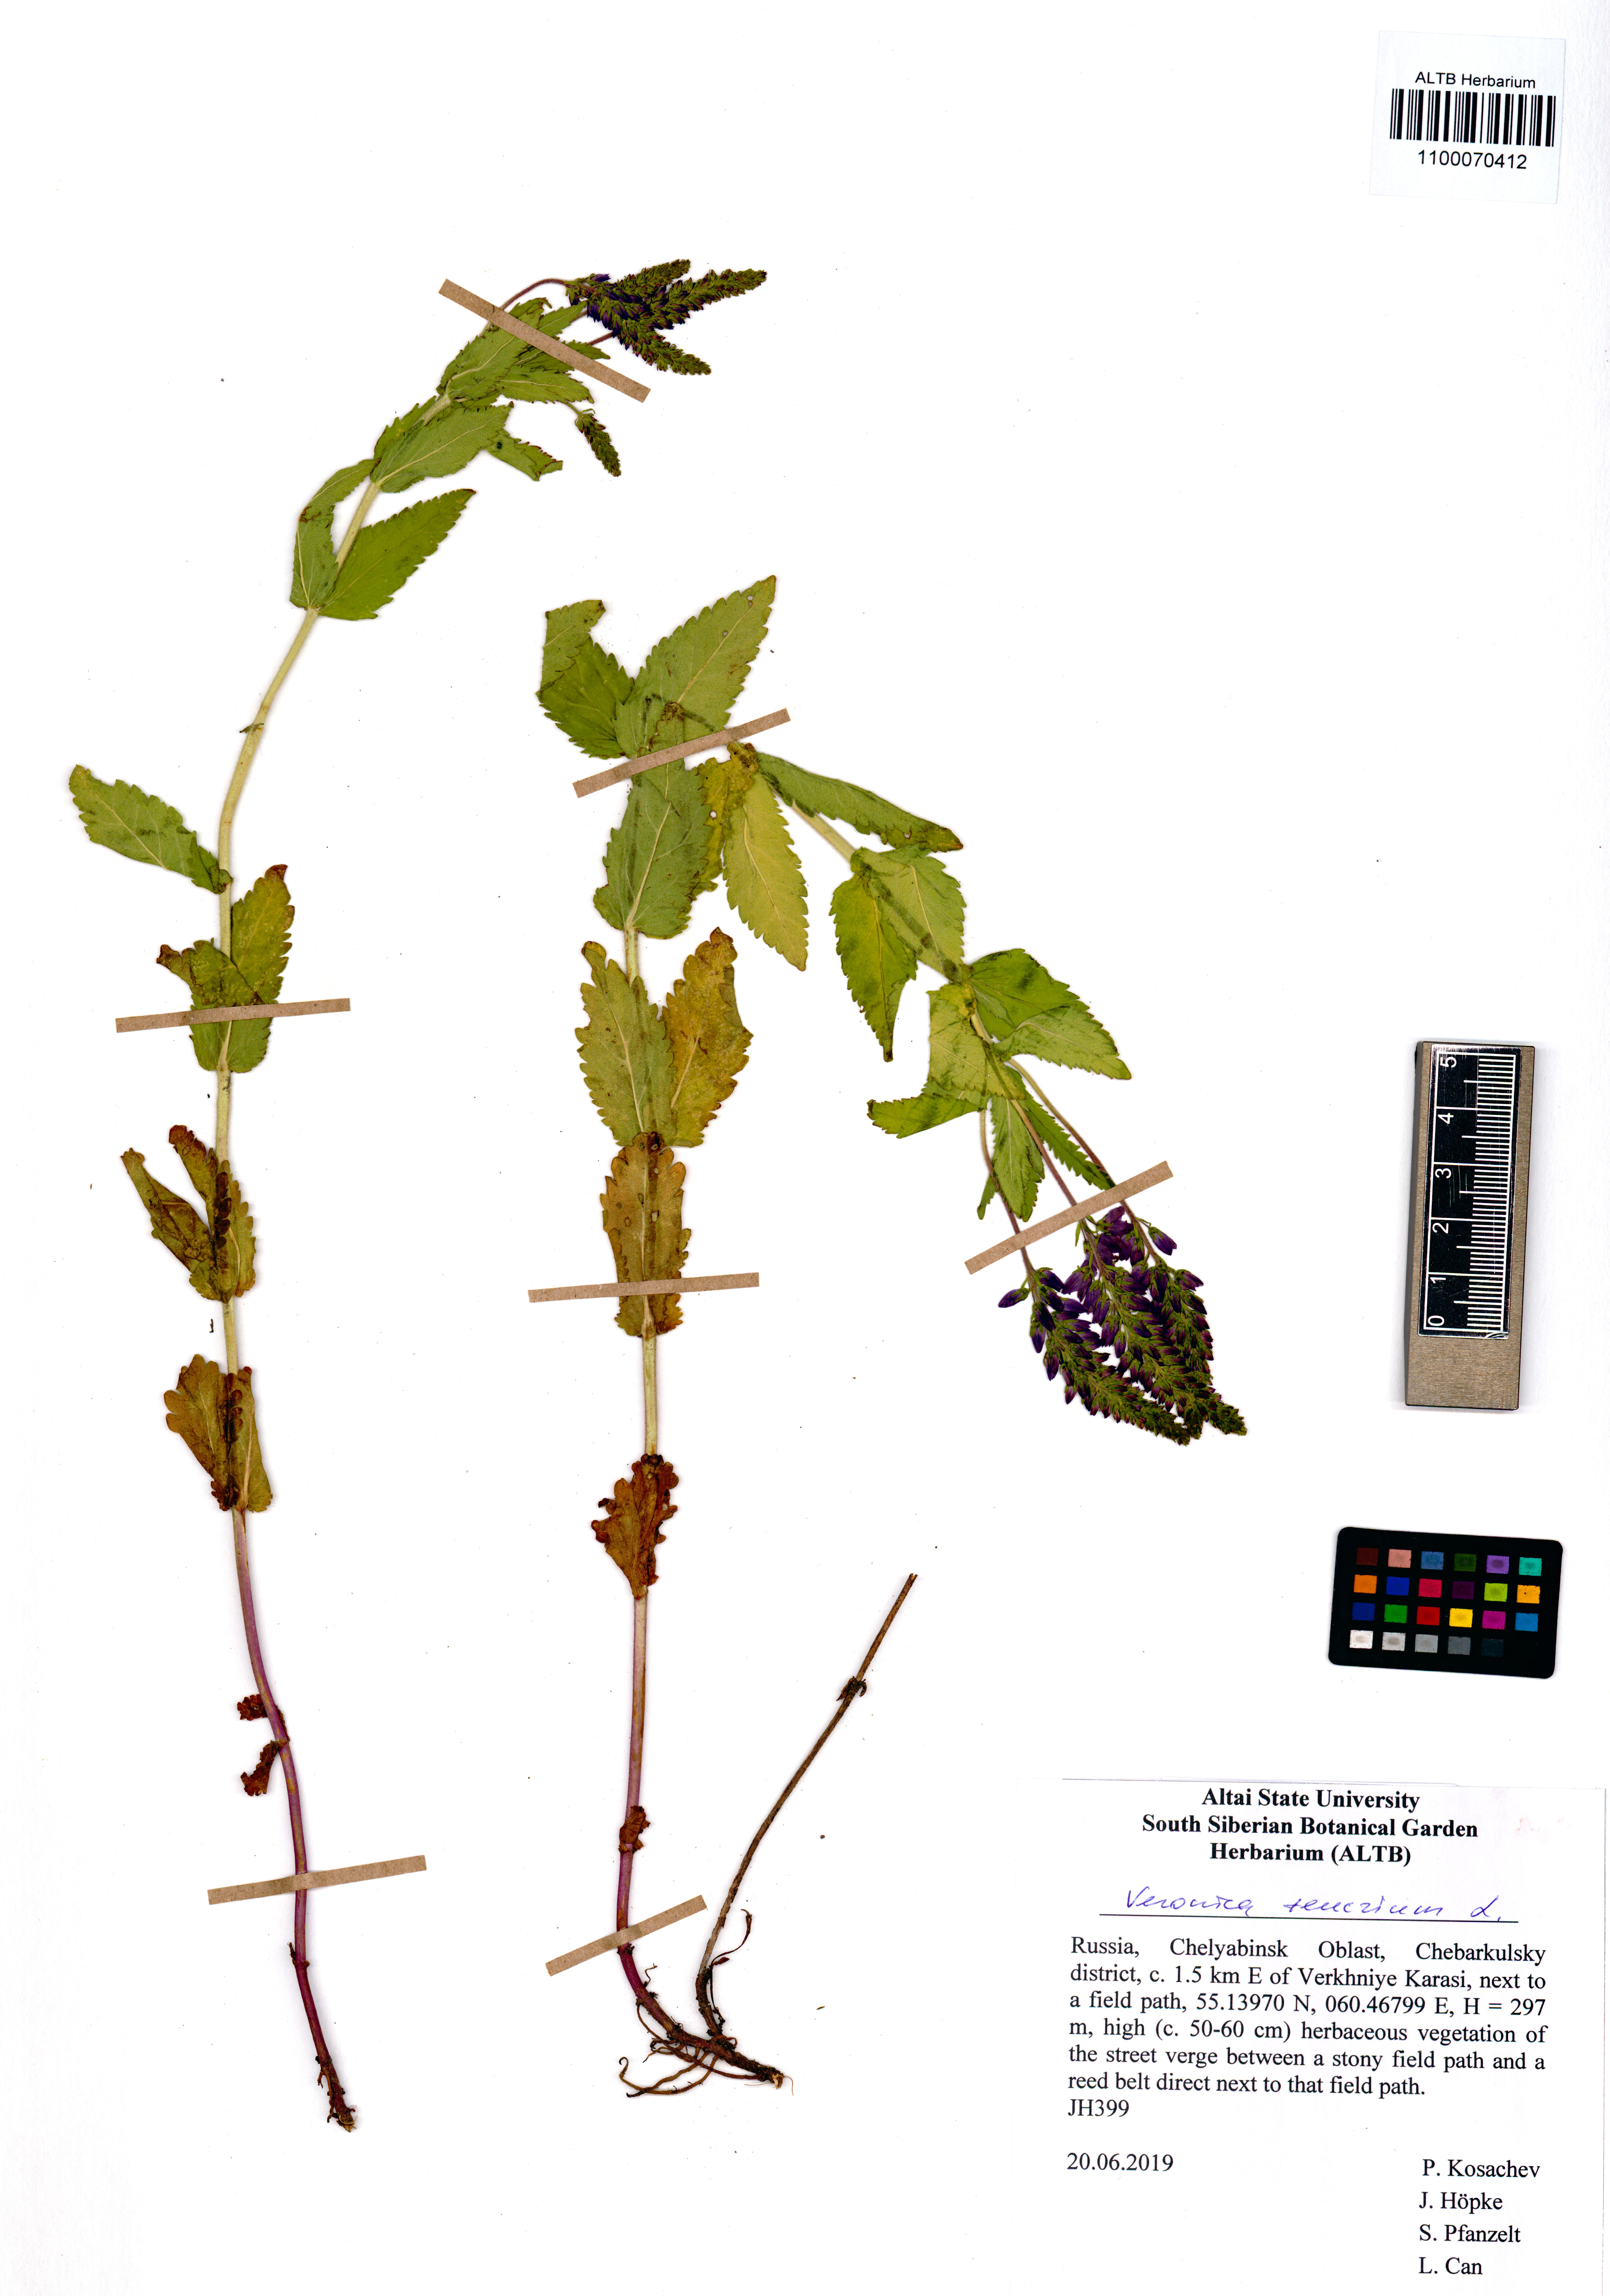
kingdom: Plantae
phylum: Tracheophyta
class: Magnoliopsida
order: Lamiales
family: Plantaginaceae
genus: Veronica
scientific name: Veronica teucrium
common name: Large speedwell
